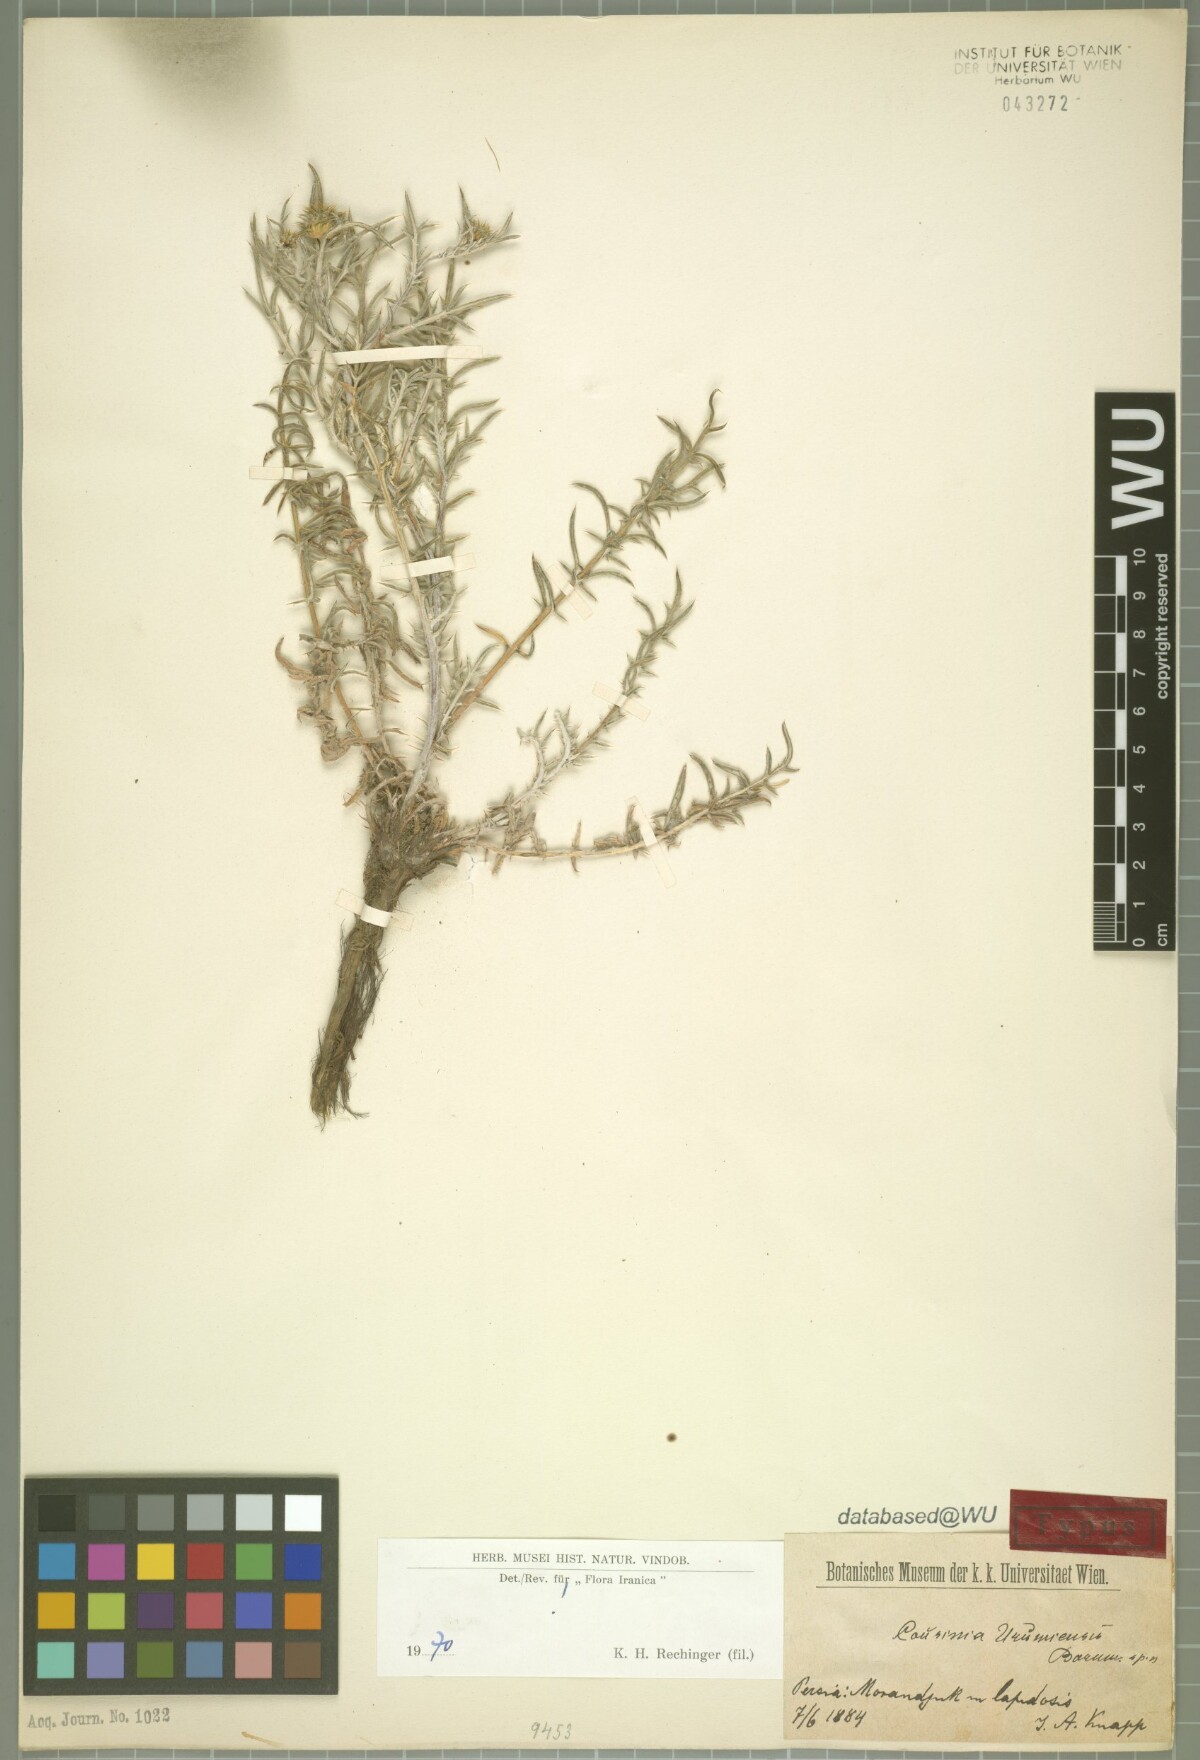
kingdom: Plantae
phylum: Tracheophyta
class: Magnoliopsida
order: Asterales
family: Asteraceae
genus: Cousinia
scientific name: Cousinia urumiensis
